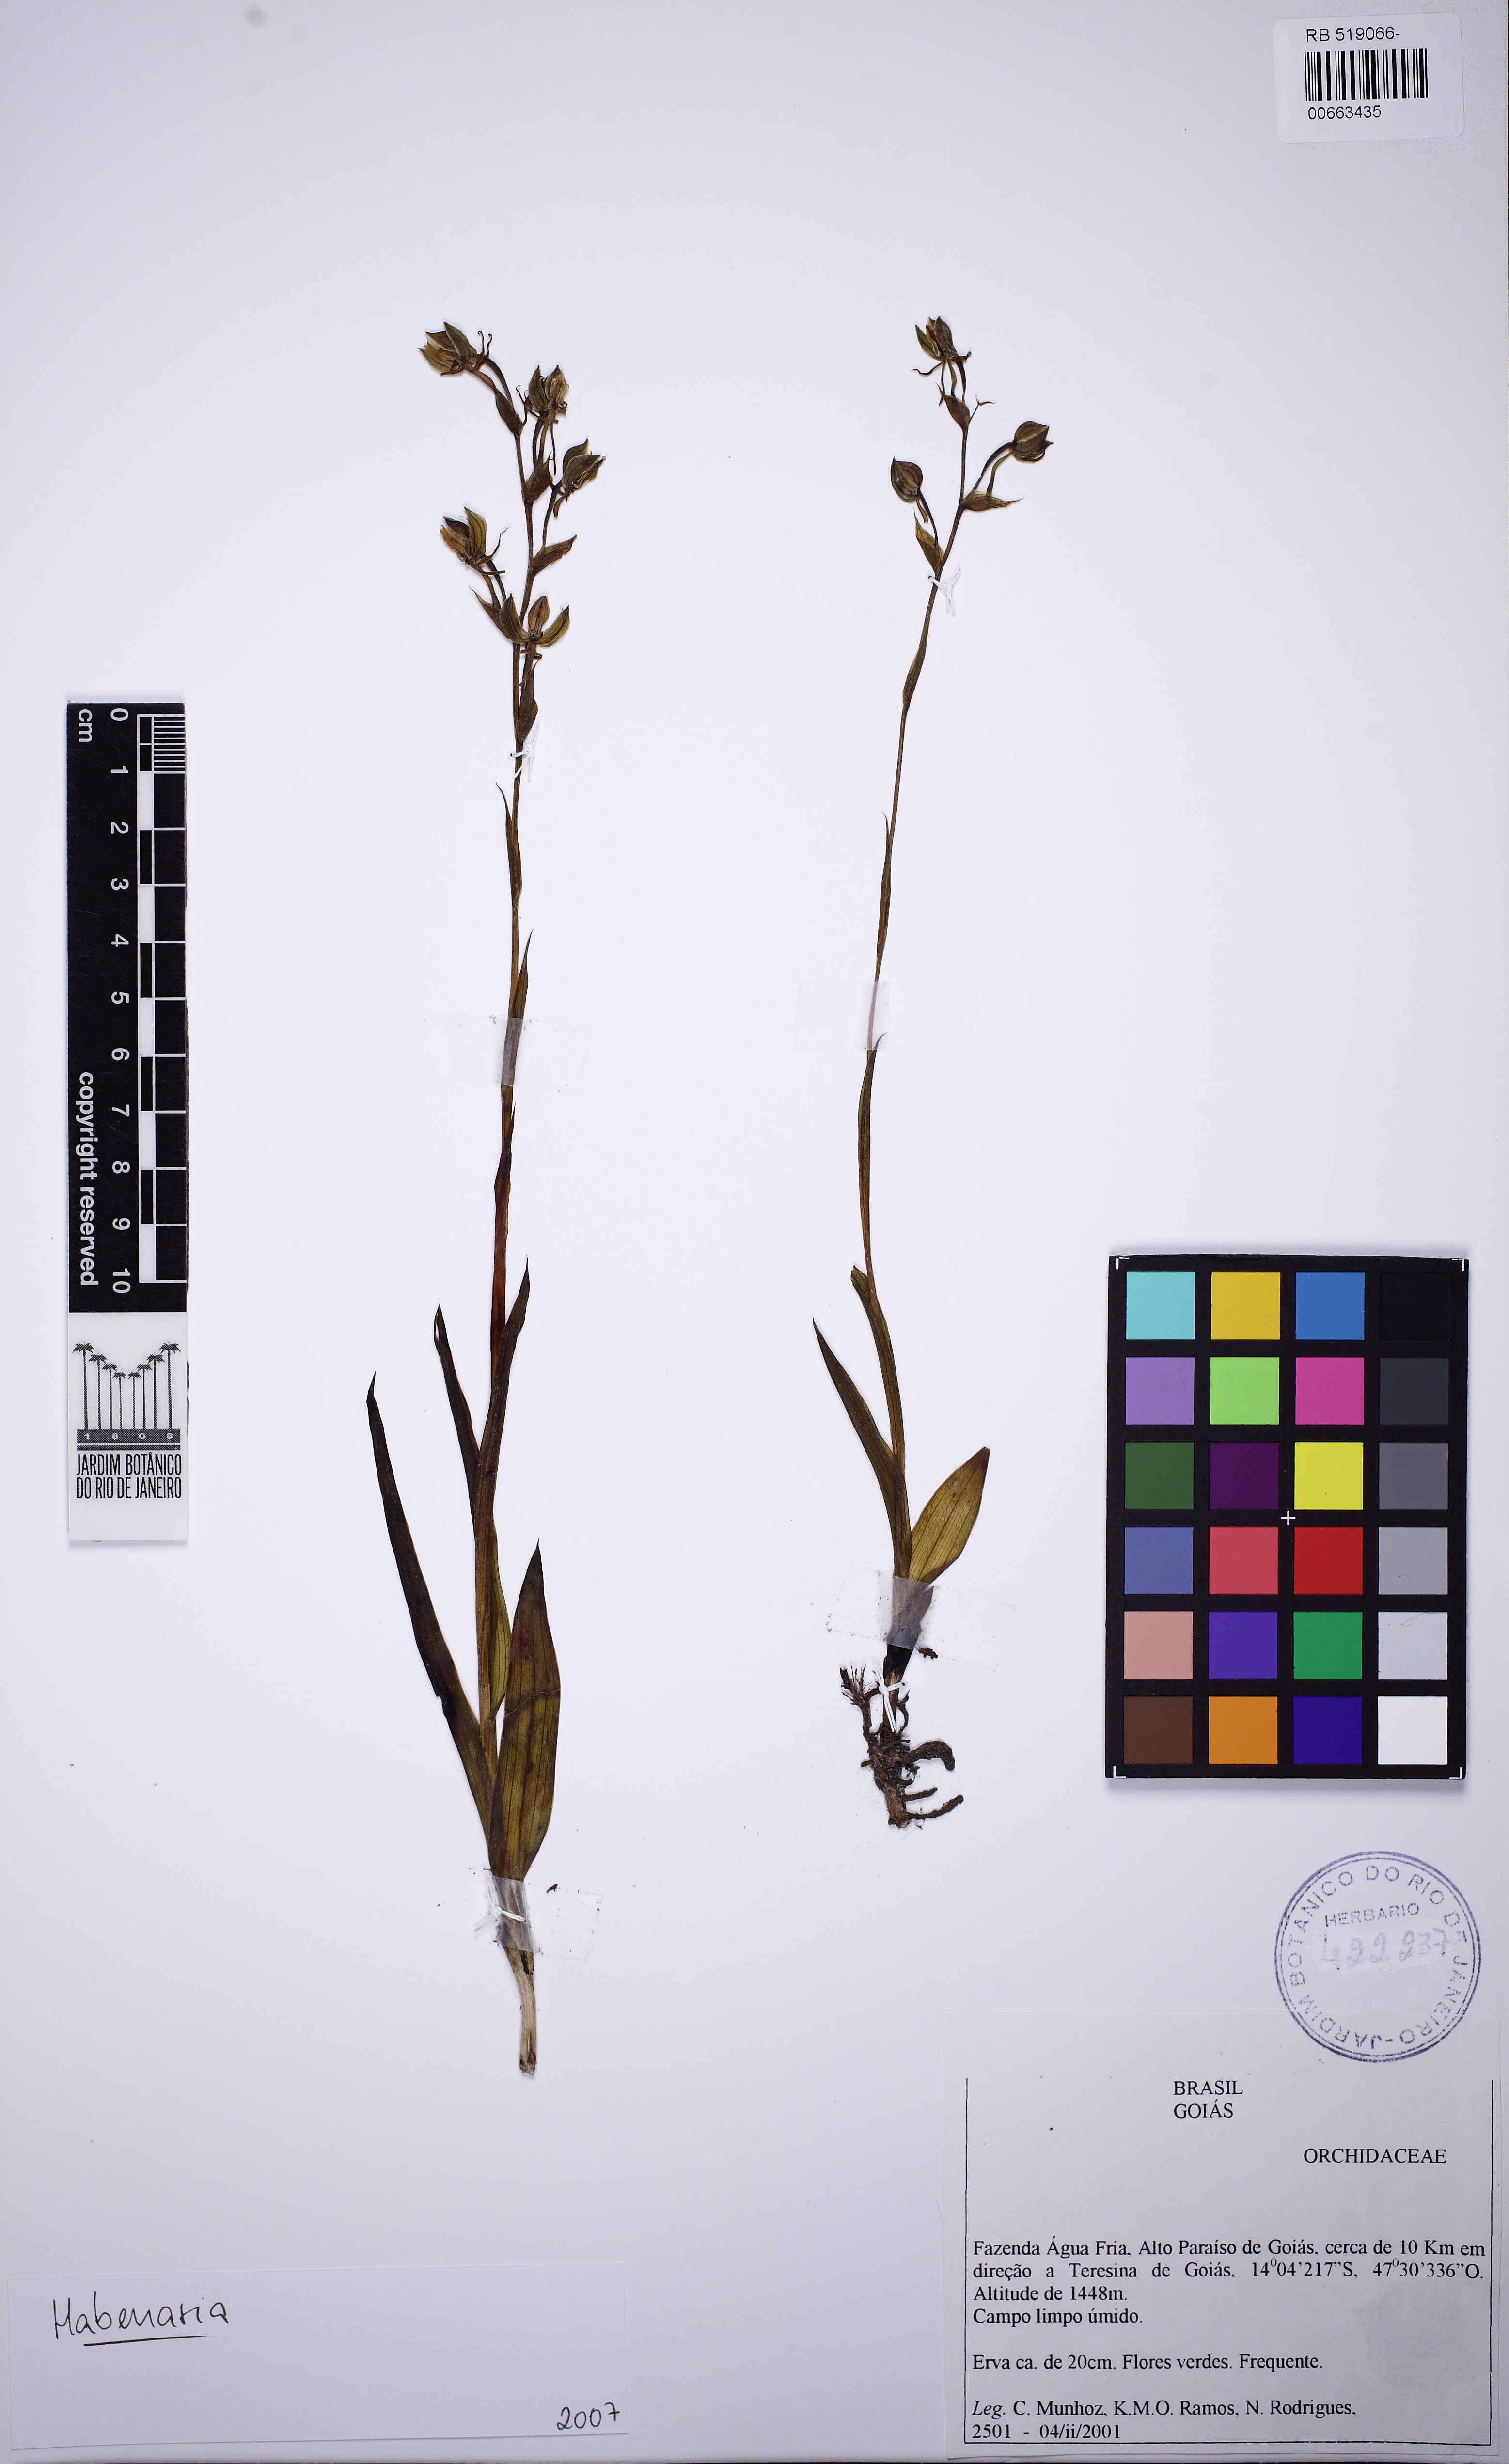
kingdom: Plantae
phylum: Tracheophyta
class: Liliopsida
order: Asparagales
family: Orchidaceae
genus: Habenaria
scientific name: Habenaria magniscutata
